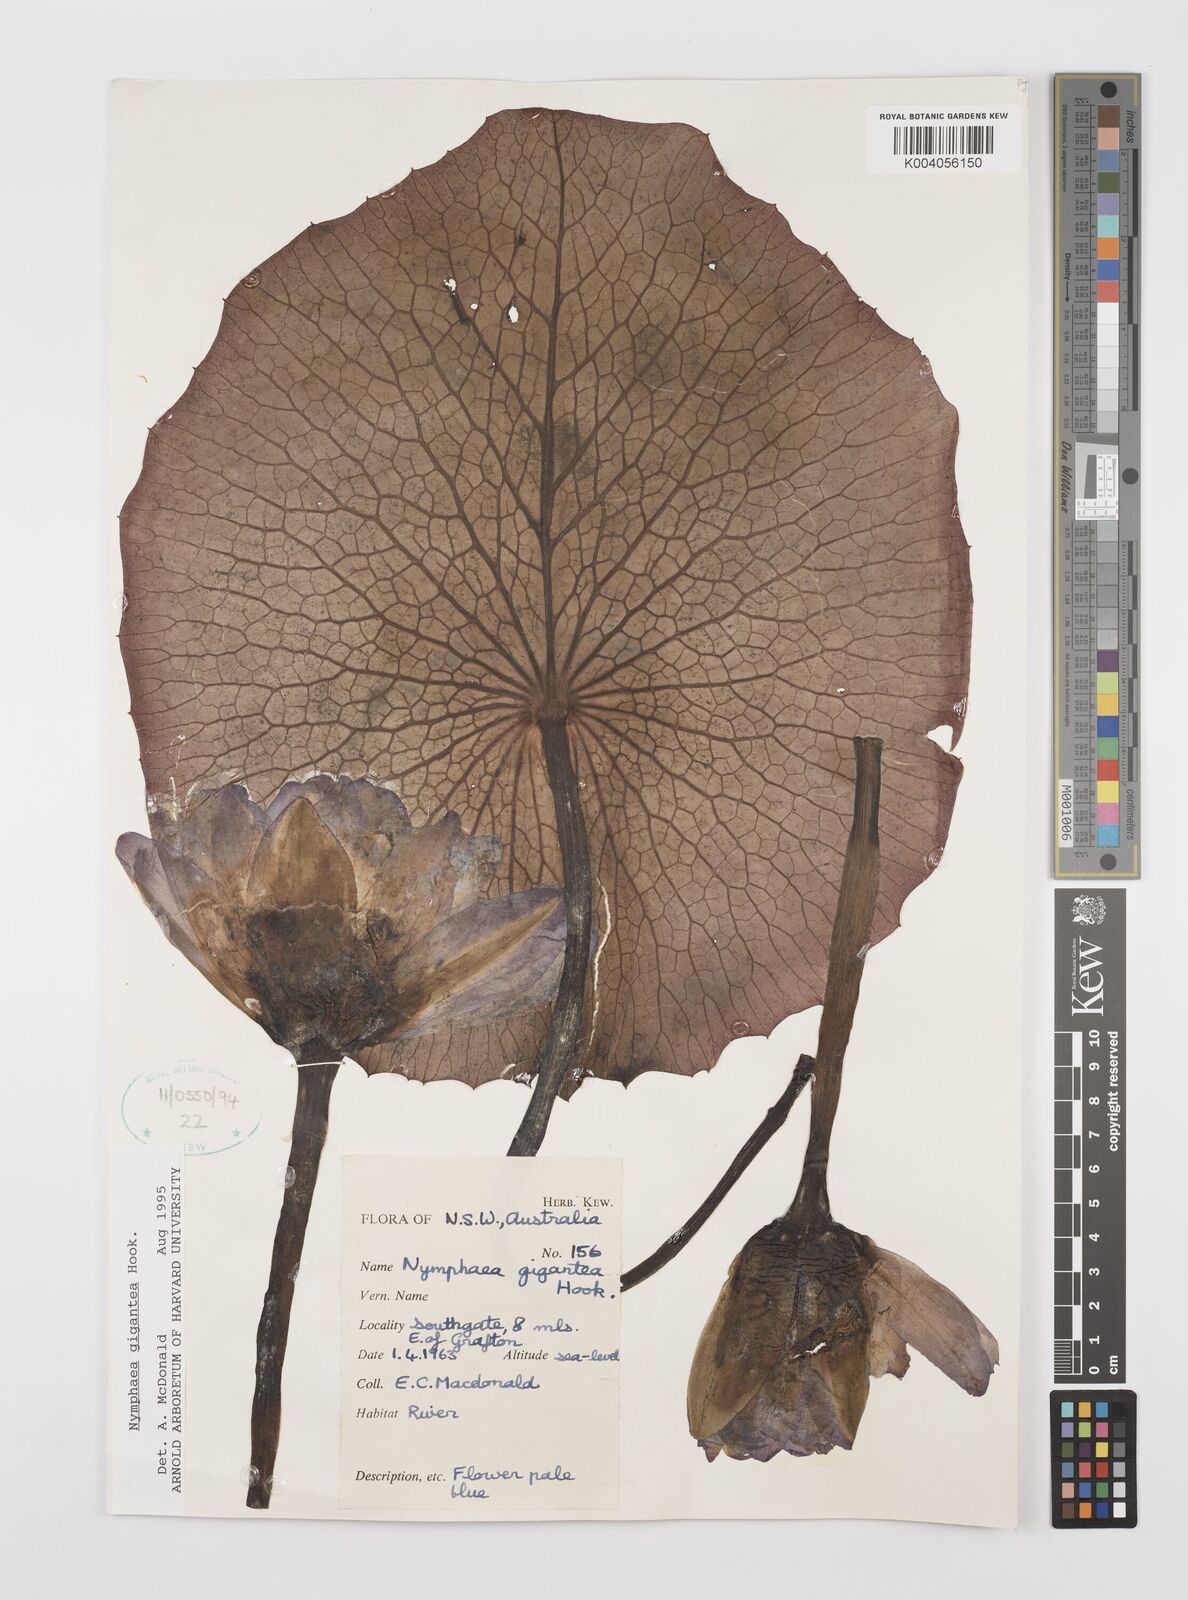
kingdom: Plantae
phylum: Tracheophyta
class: Magnoliopsida
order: Nymphaeales
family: Nymphaeaceae
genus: Nymphaea
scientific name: Nymphaea gigantea
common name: Giant water-lily
